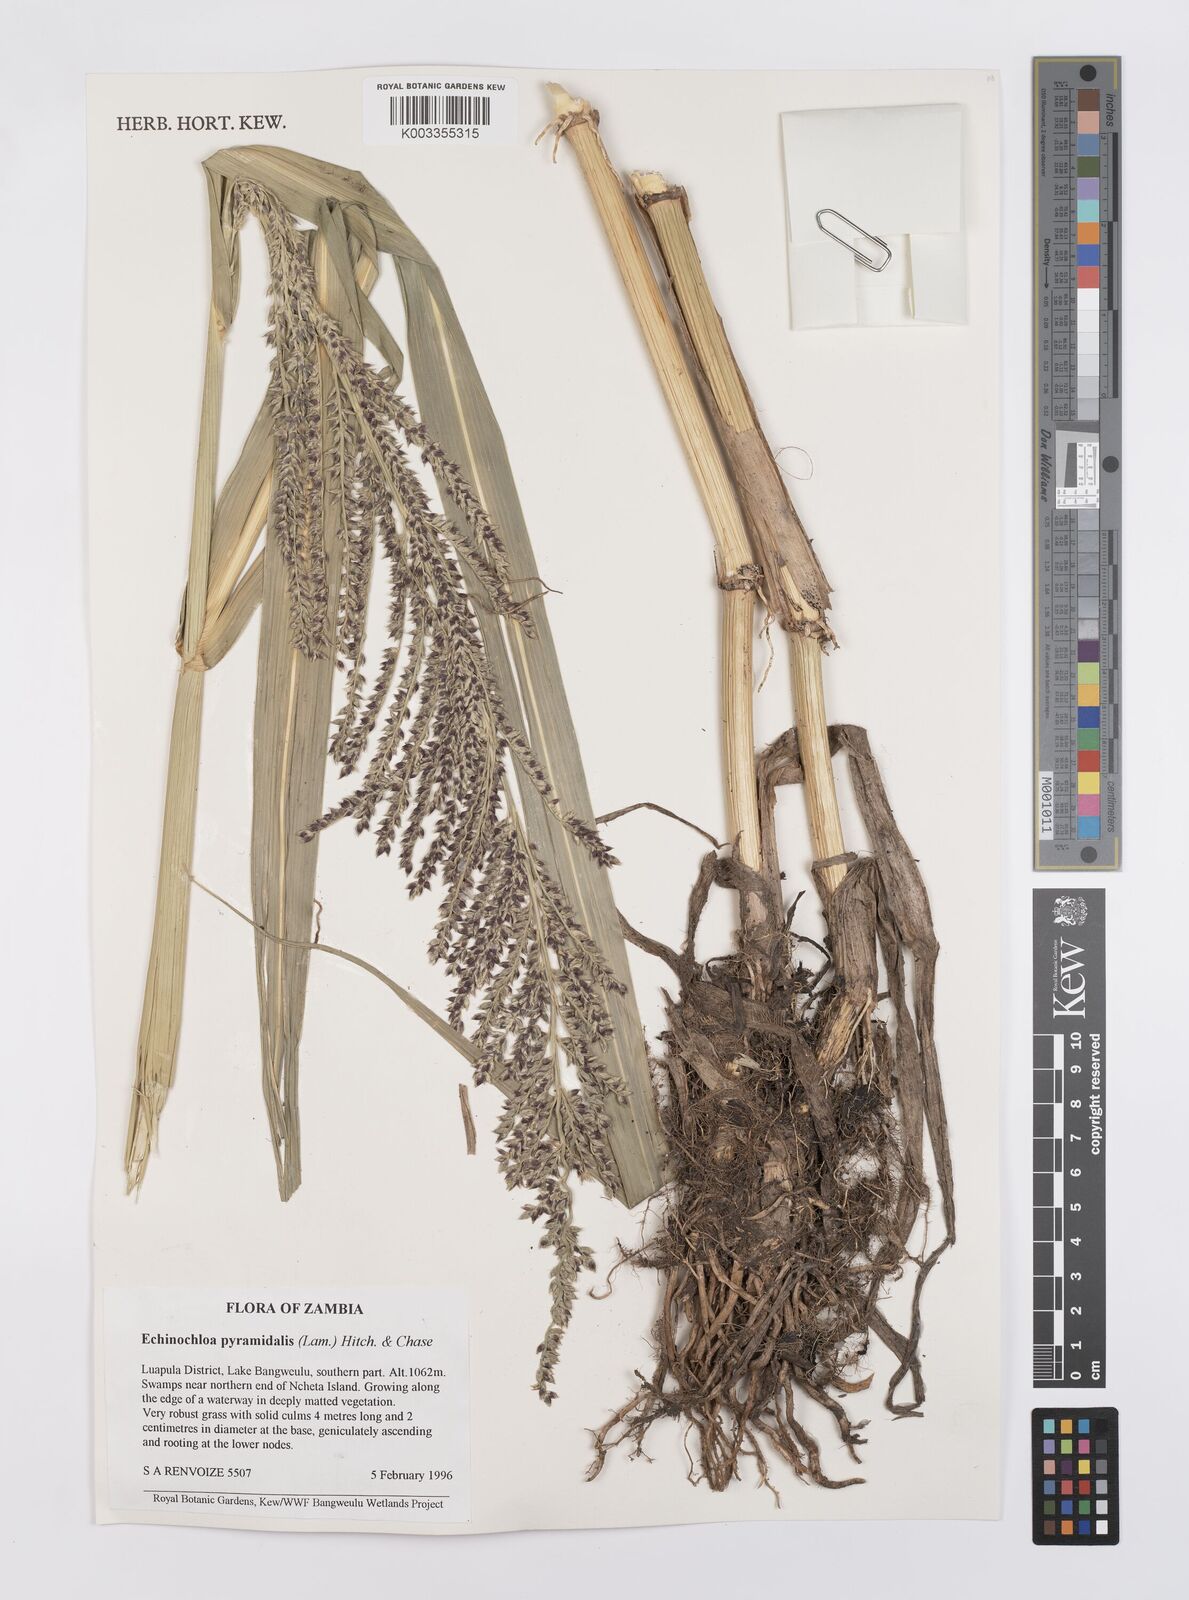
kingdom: Plantae
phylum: Tracheophyta
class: Liliopsida
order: Poales
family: Poaceae
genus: Echinochloa
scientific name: Echinochloa pyramidalis
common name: Antelope grass
